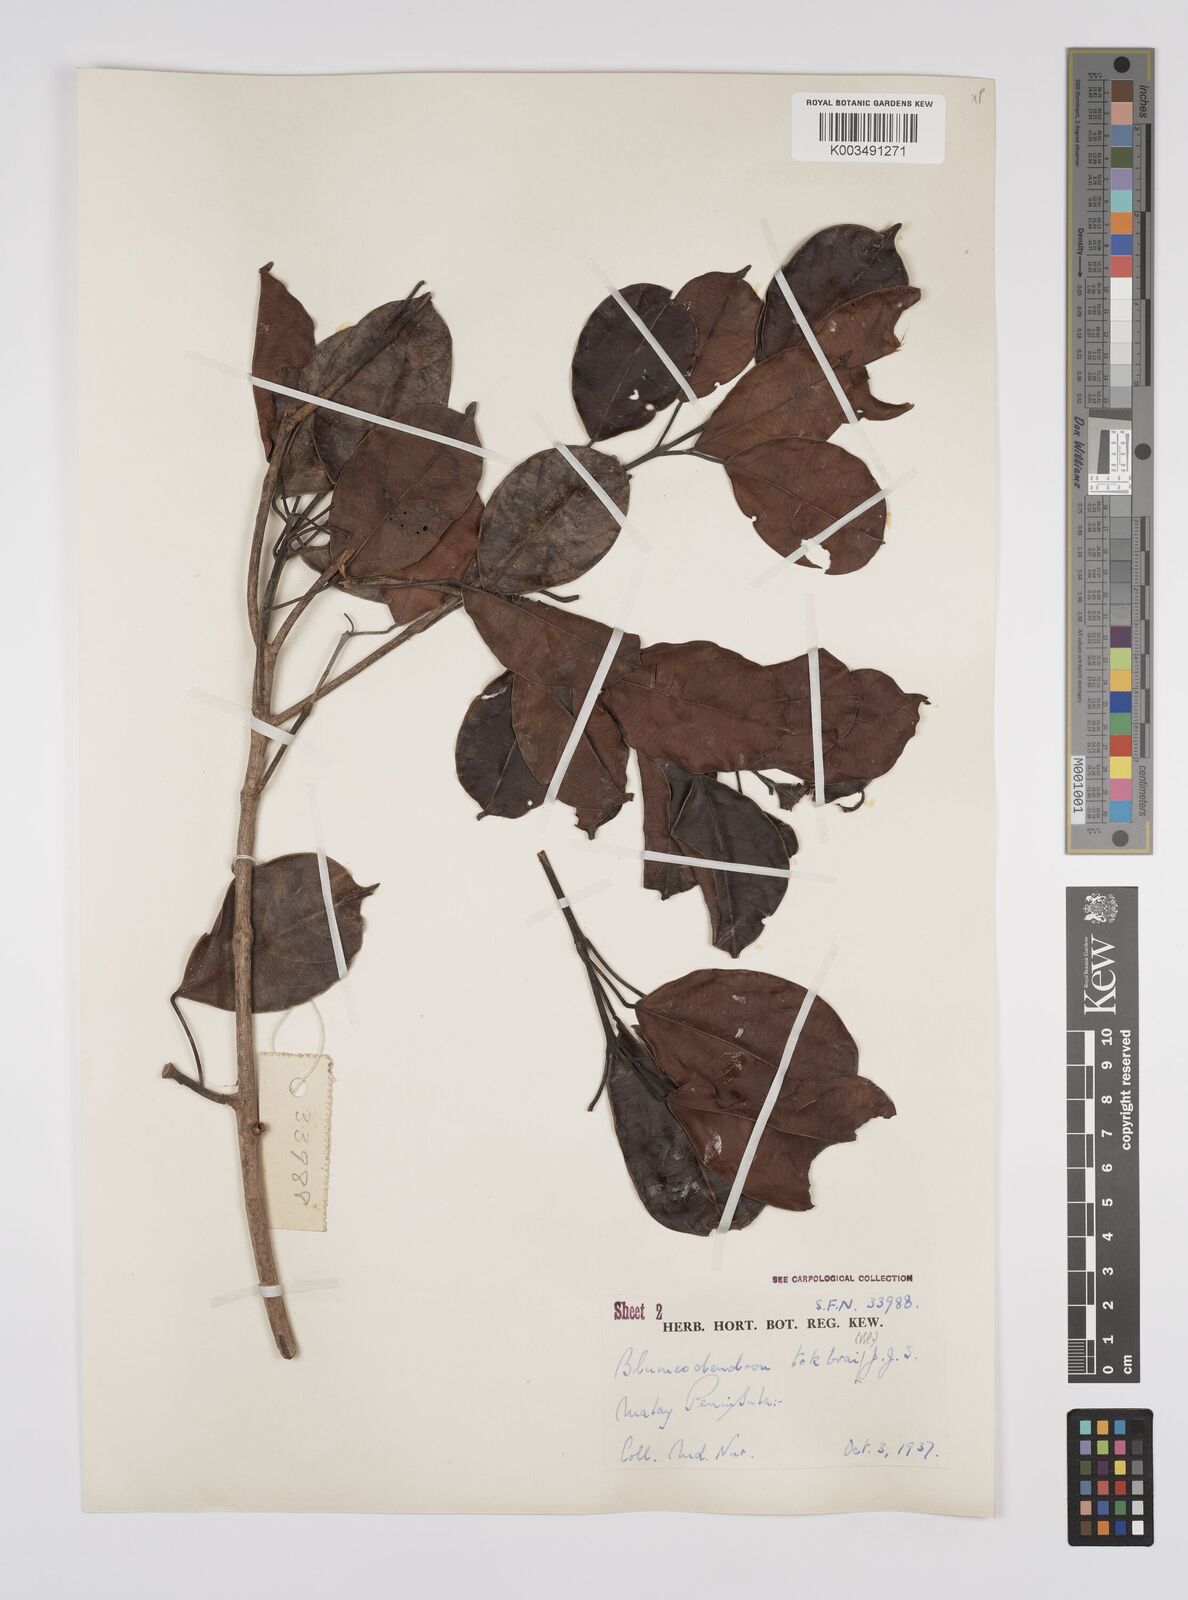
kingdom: Plantae
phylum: Tracheophyta
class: Magnoliopsida
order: Malpighiales
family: Euphorbiaceae
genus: Blumeodendron
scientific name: Blumeodendron tokbrai
